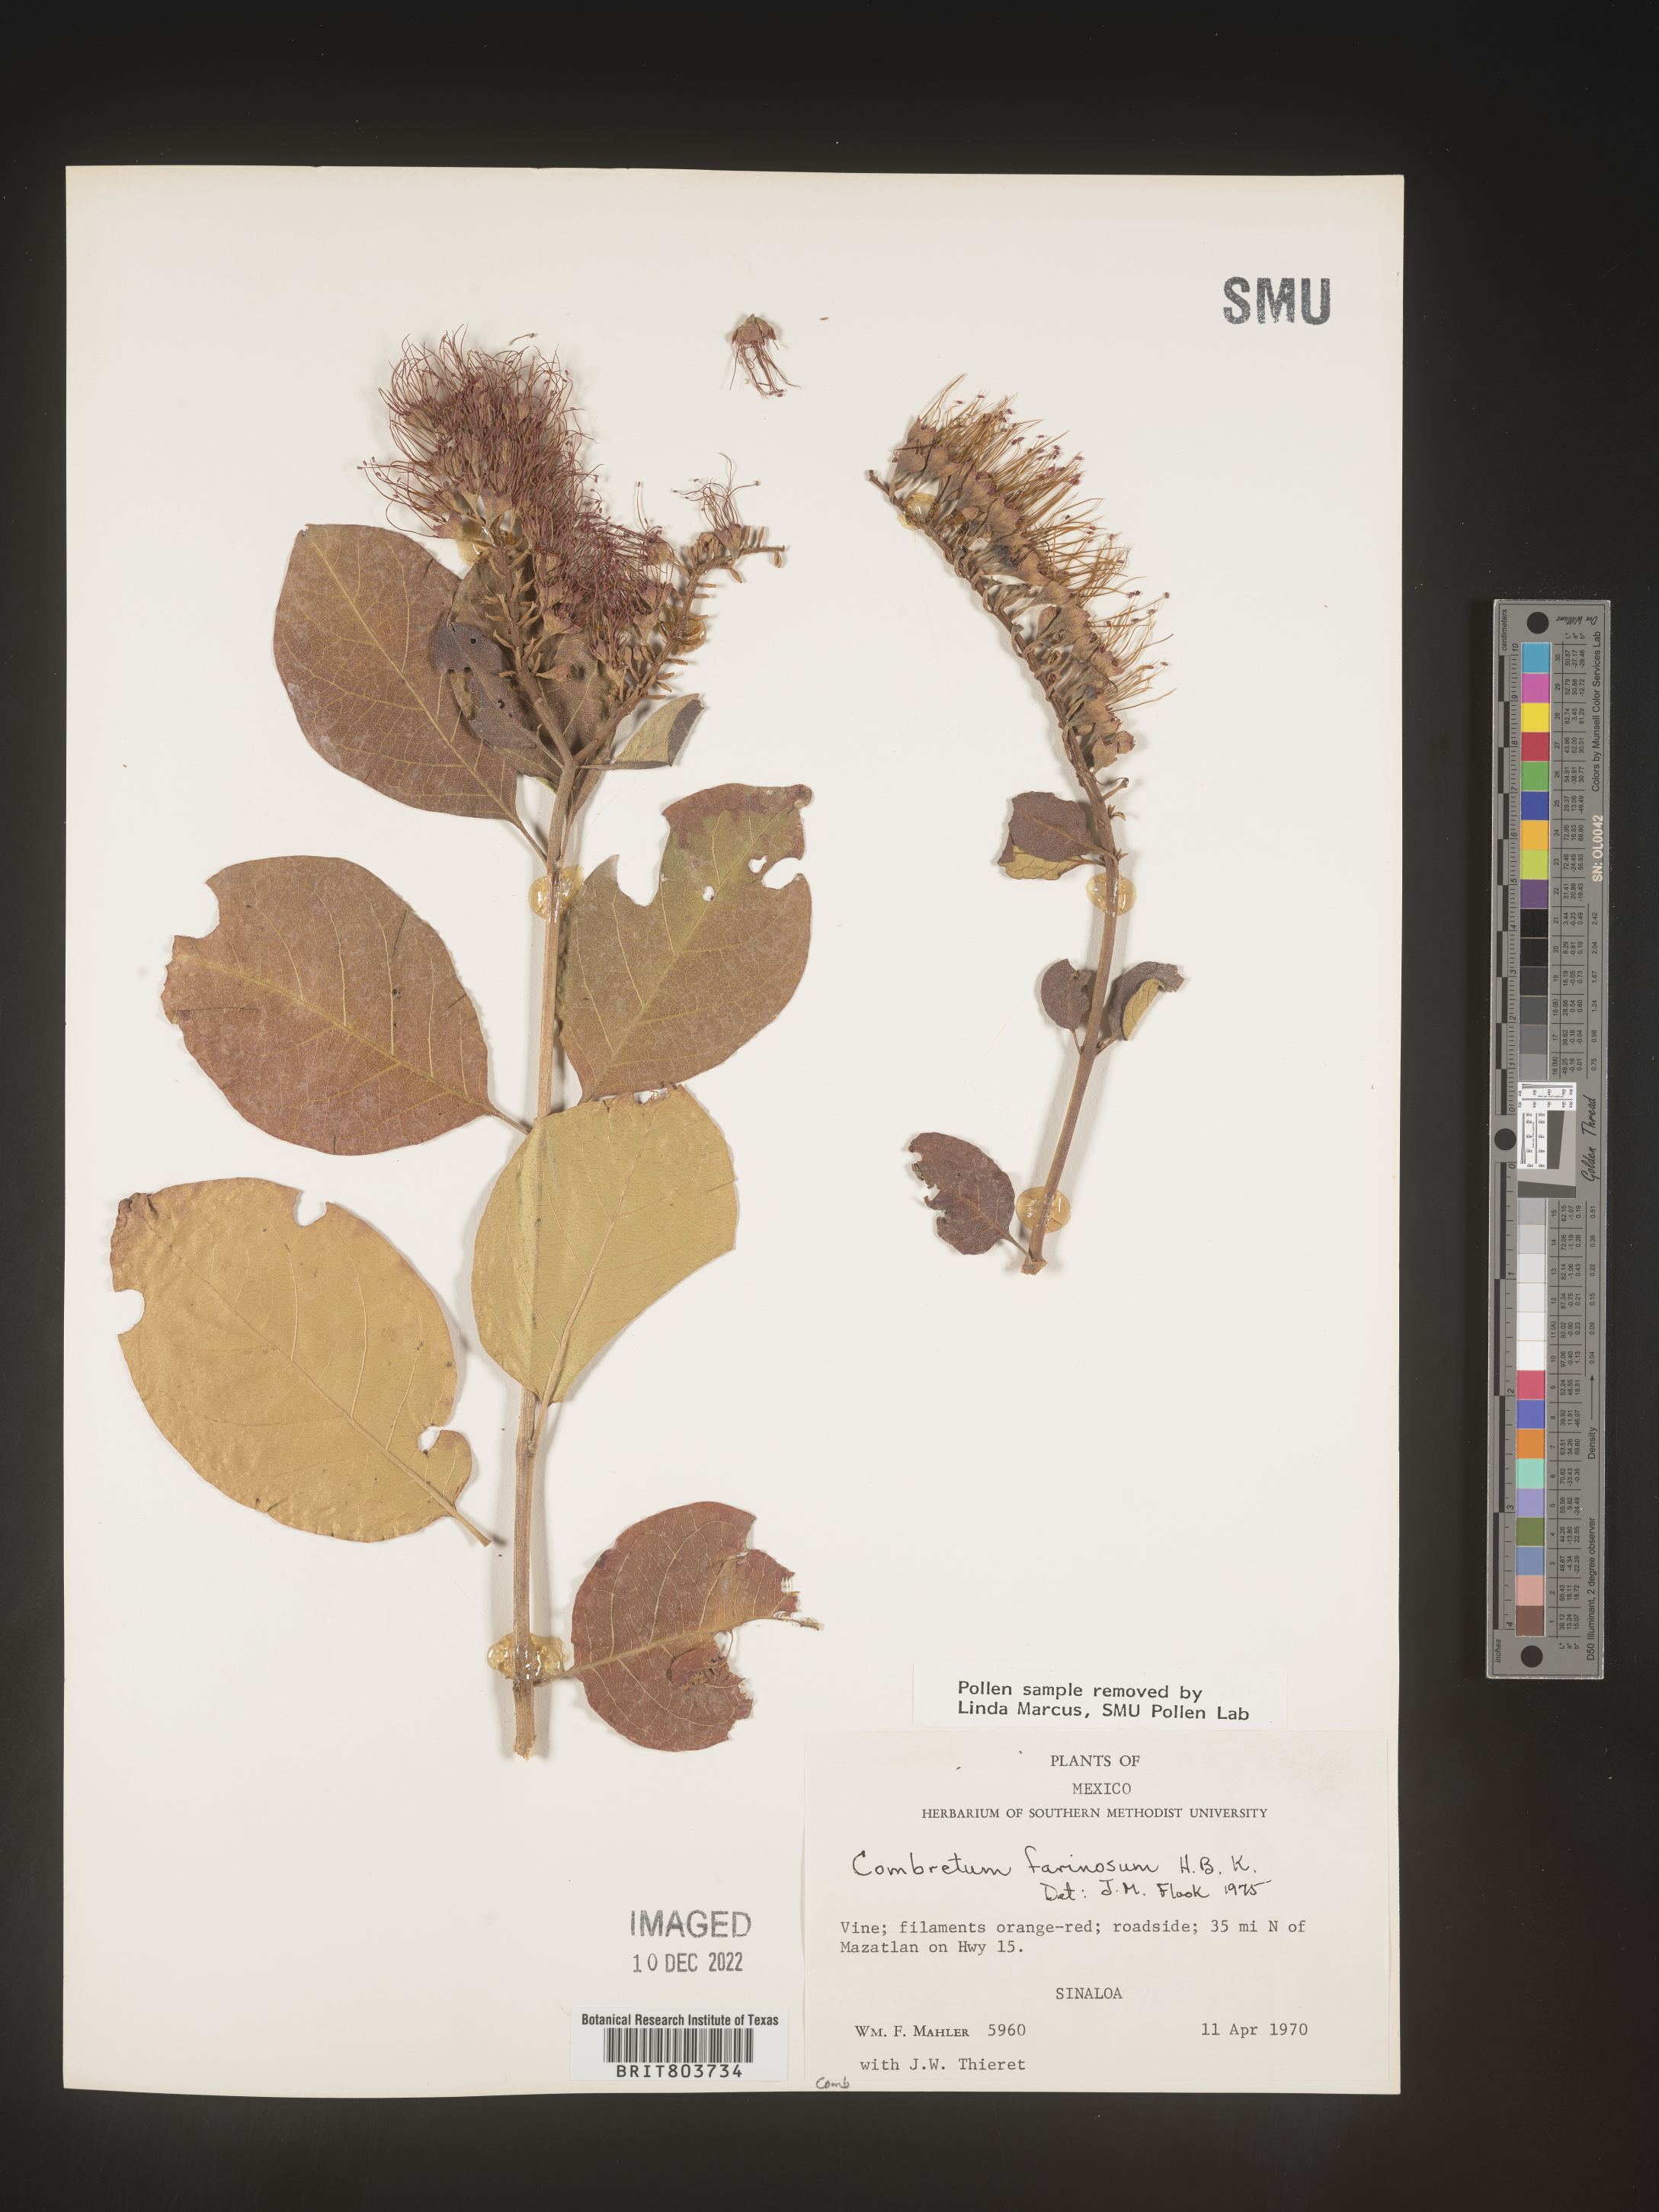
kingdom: Plantae
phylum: Tracheophyta
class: Magnoliopsida
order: Myrtales
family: Combretaceae
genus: Combretum
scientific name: Combretum
